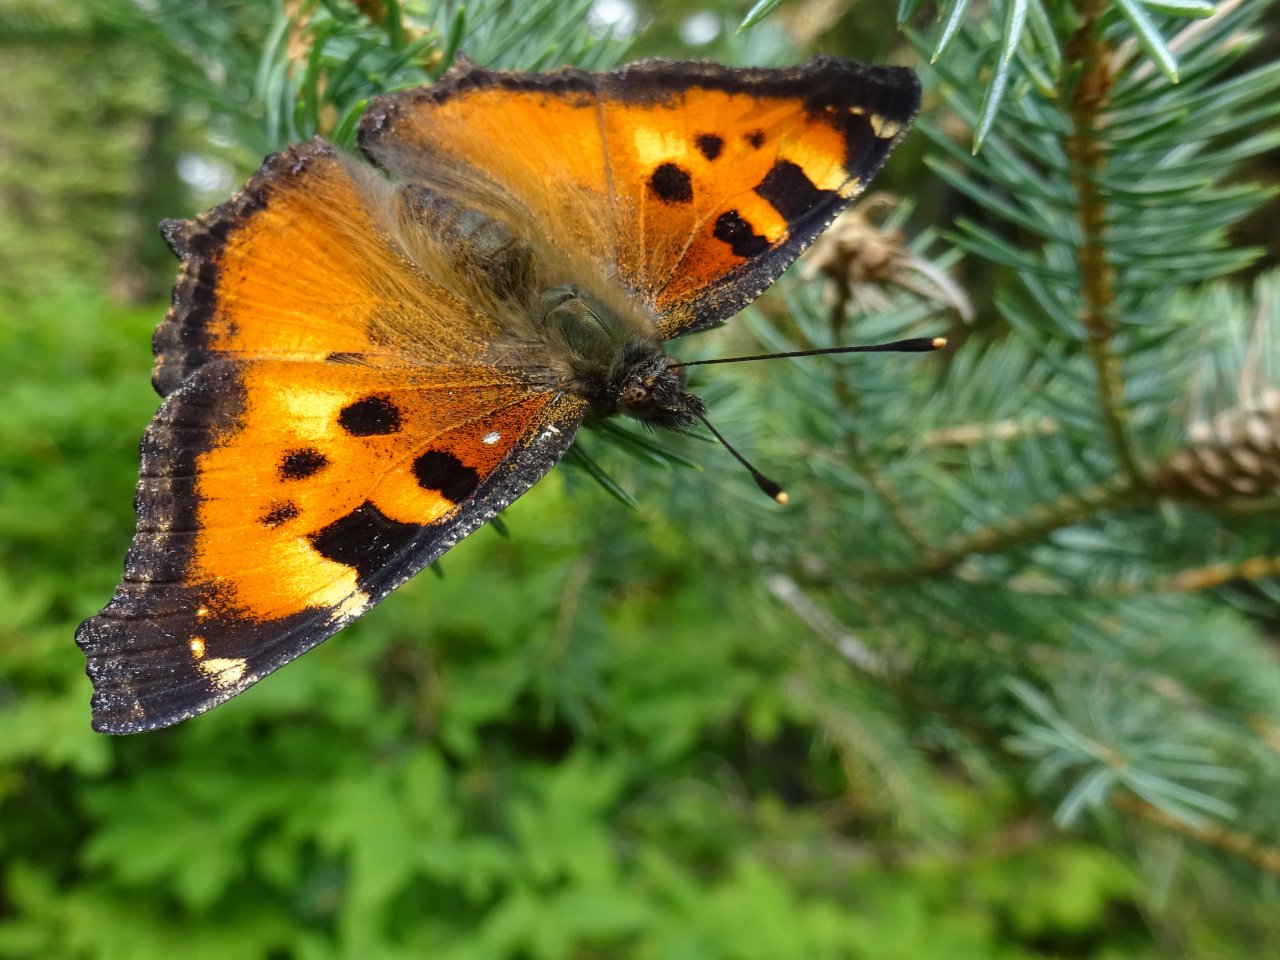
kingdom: Animalia
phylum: Arthropoda
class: Insecta
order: Lepidoptera
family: Nymphalidae
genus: Nymphalis
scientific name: Nymphalis californica
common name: California Tortoiseshell
